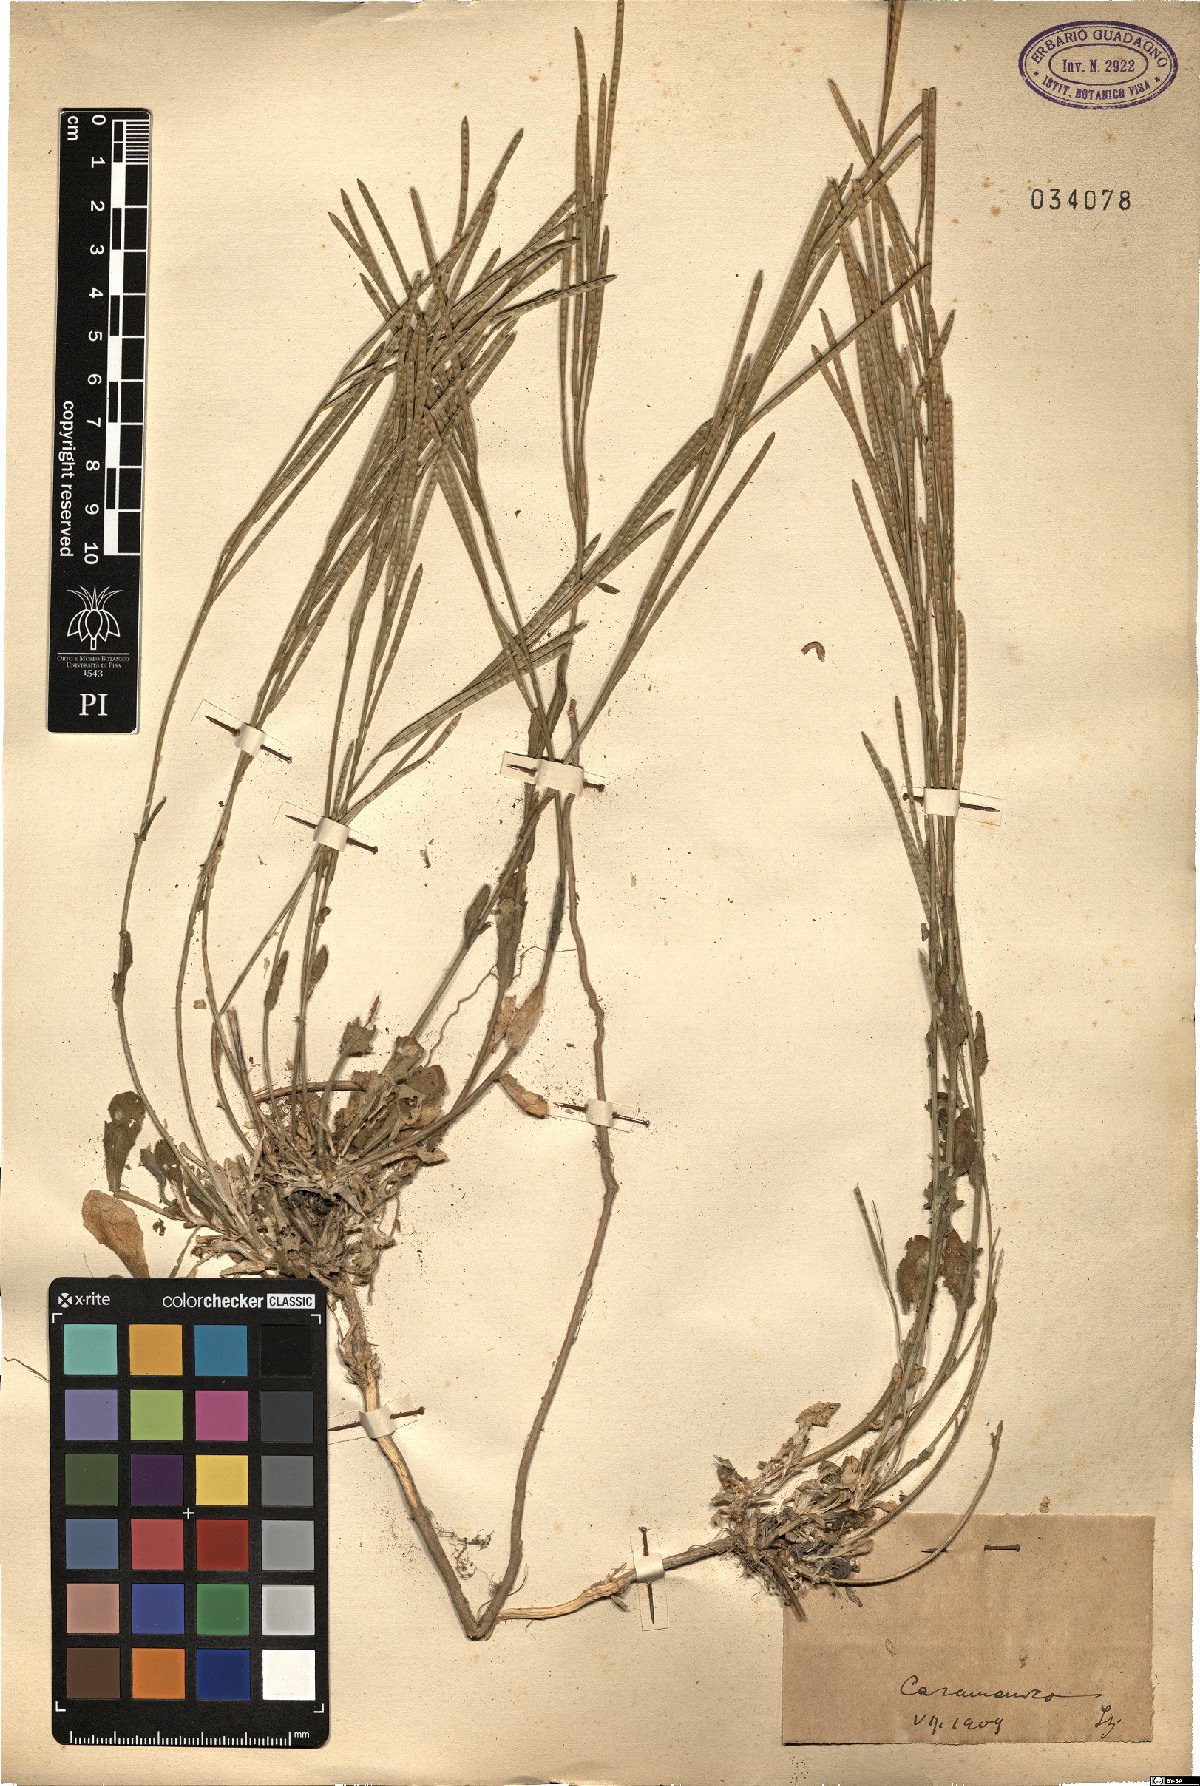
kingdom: Plantae
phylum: Tracheophyta
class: Magnoliopsida
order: Brassicales
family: Brassicaceae
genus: Arabis
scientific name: Arabis
